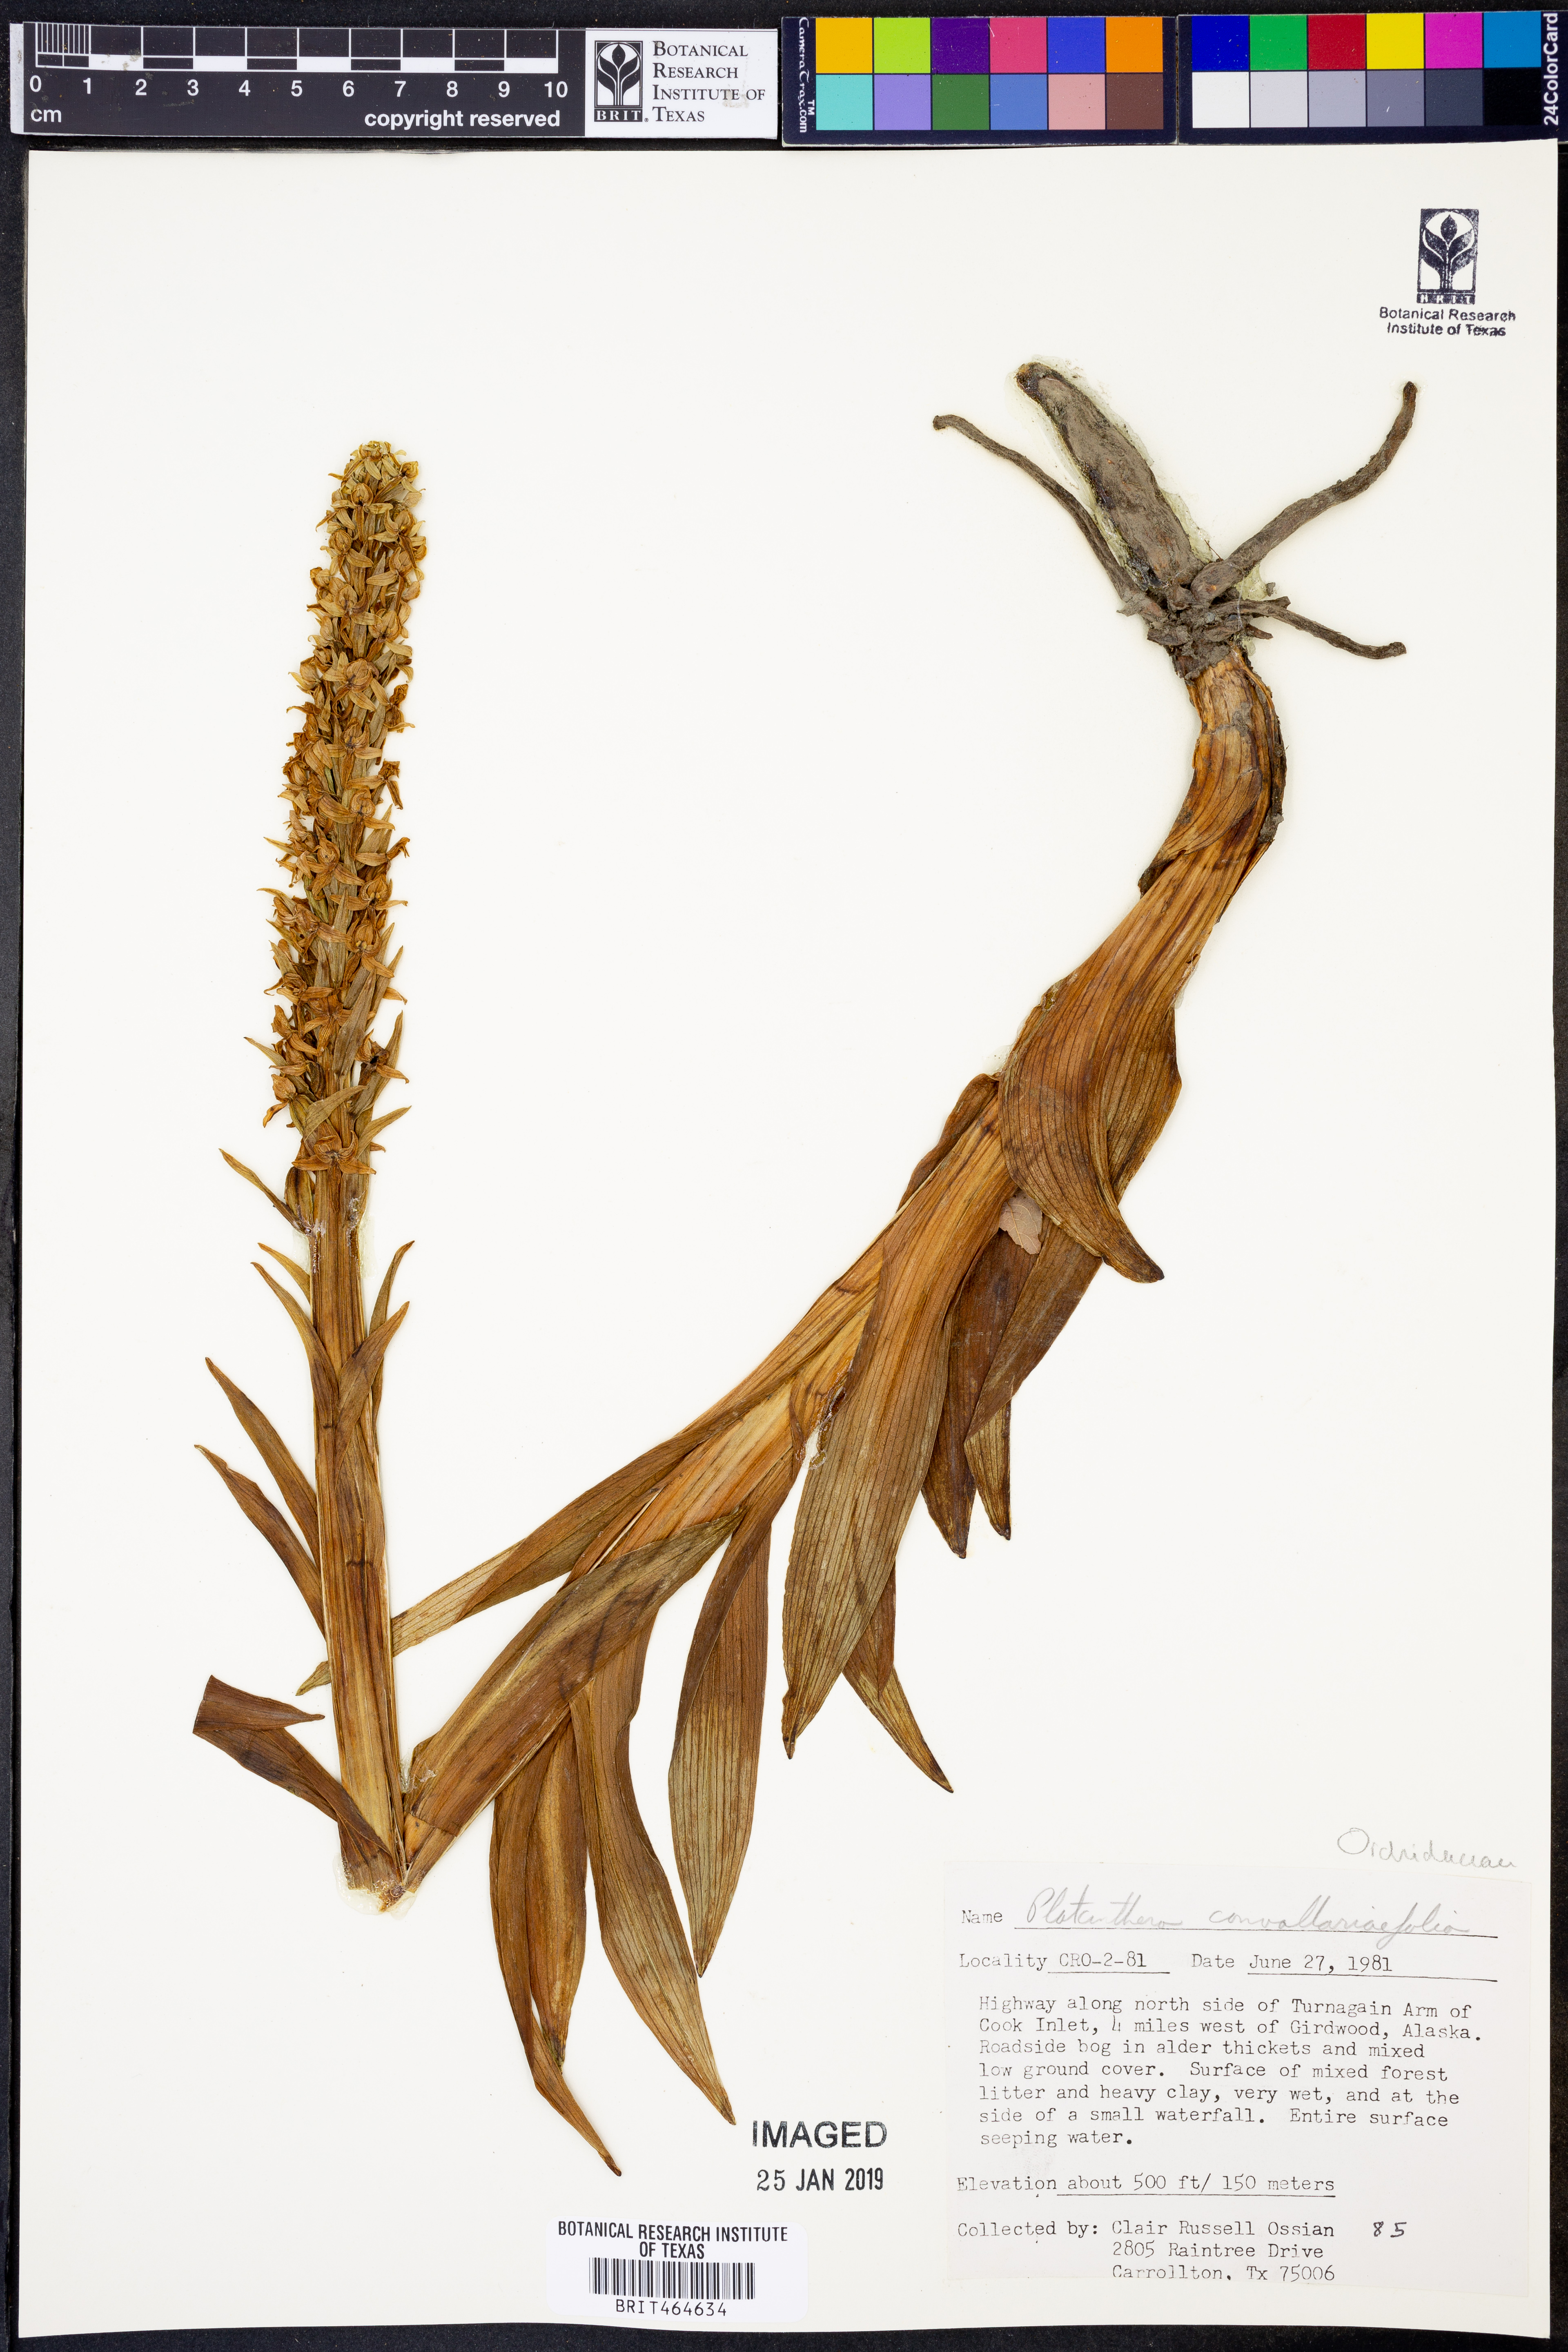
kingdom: Plantae
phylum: Tracheophyta
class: Liliopsida
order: Asparagales
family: Orchidaceae
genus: Platanthera
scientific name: Platanthera convallariifolia
